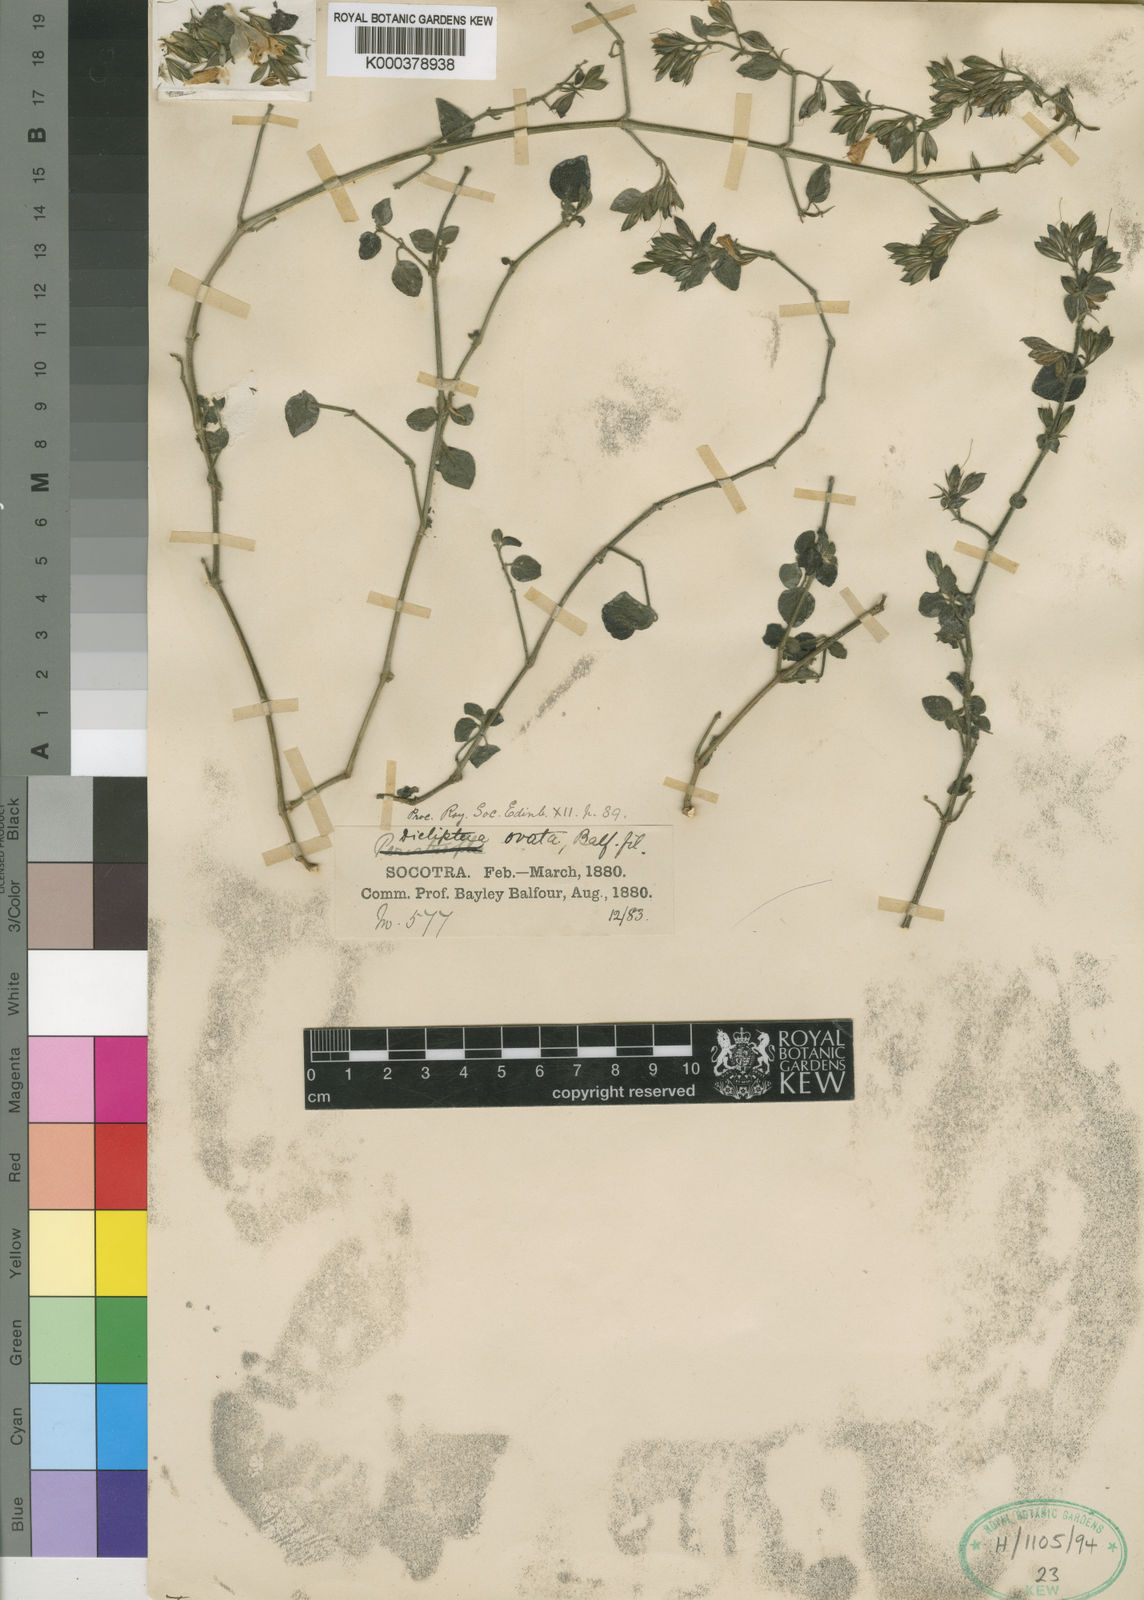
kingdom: Plantae
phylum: Tracheophyta
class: Magnoliopsida
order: Lamiales
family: Acanthaceae
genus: Dicliptera
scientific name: Dicliptera effusa
